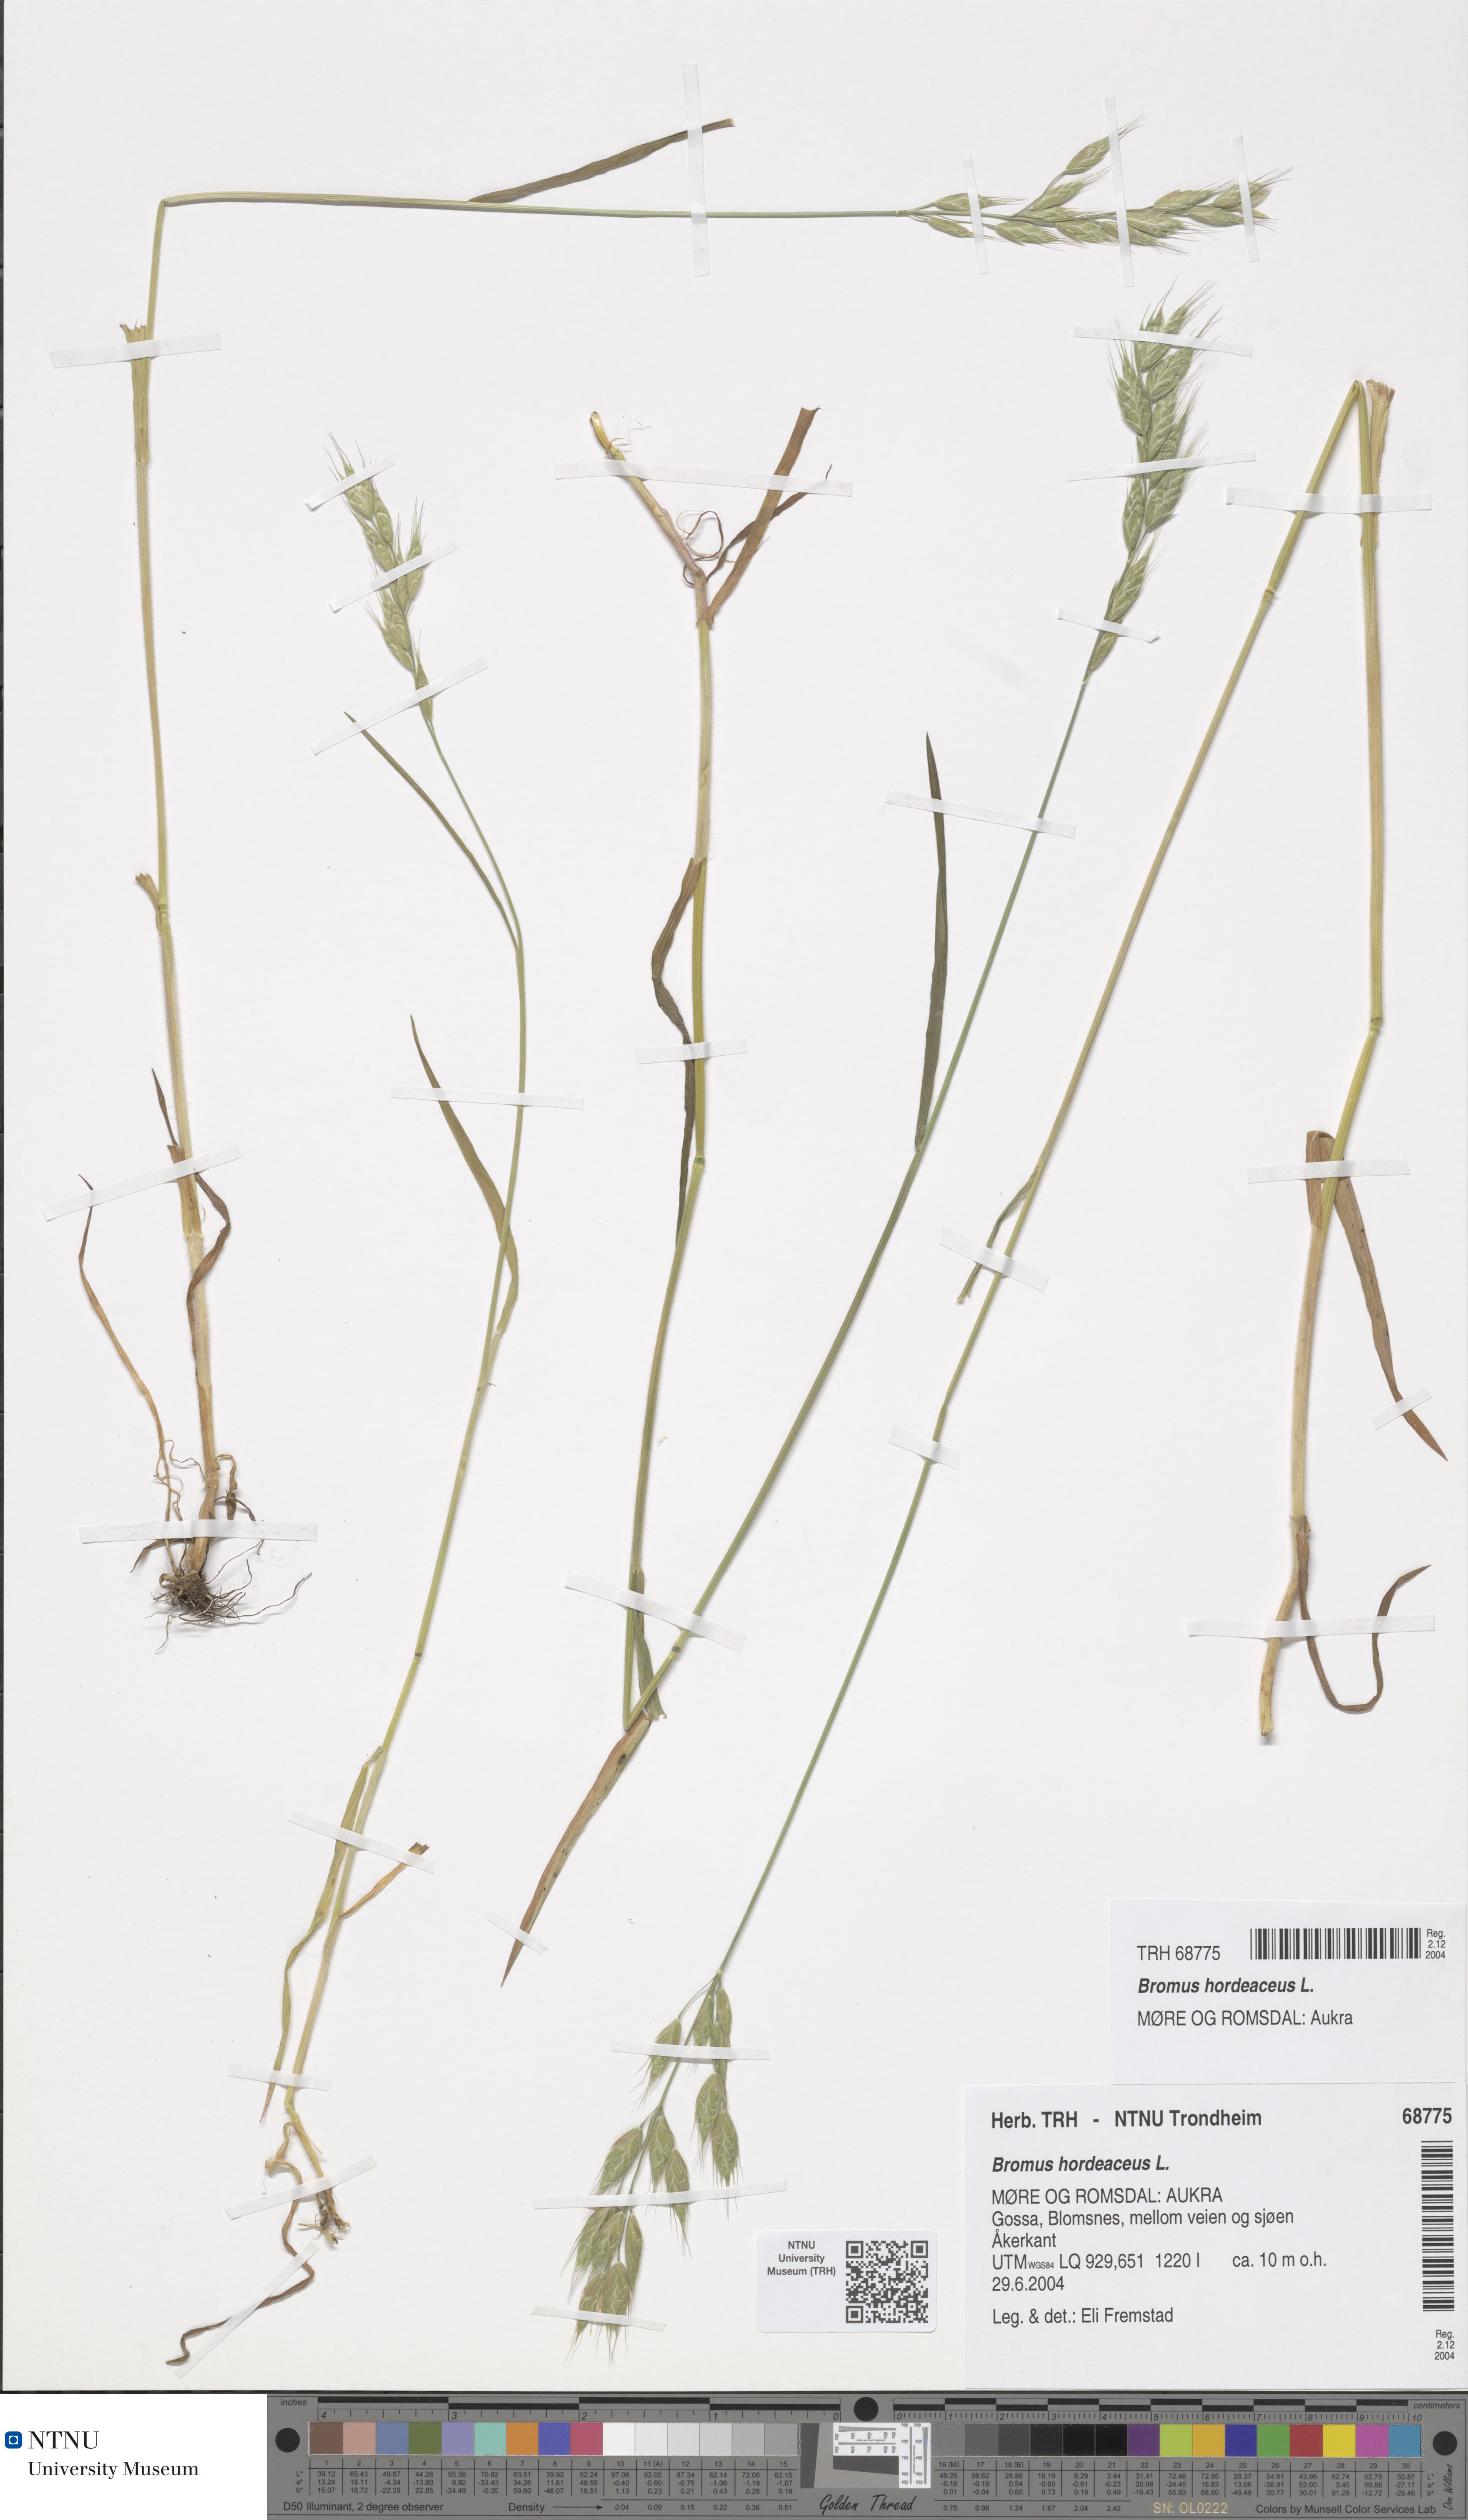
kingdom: Plantae
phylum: Tracheophyta
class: Liliopsida
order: Poales
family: Poaceae
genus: Bromus
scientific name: Bromus hordeaceus
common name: Soft brome
